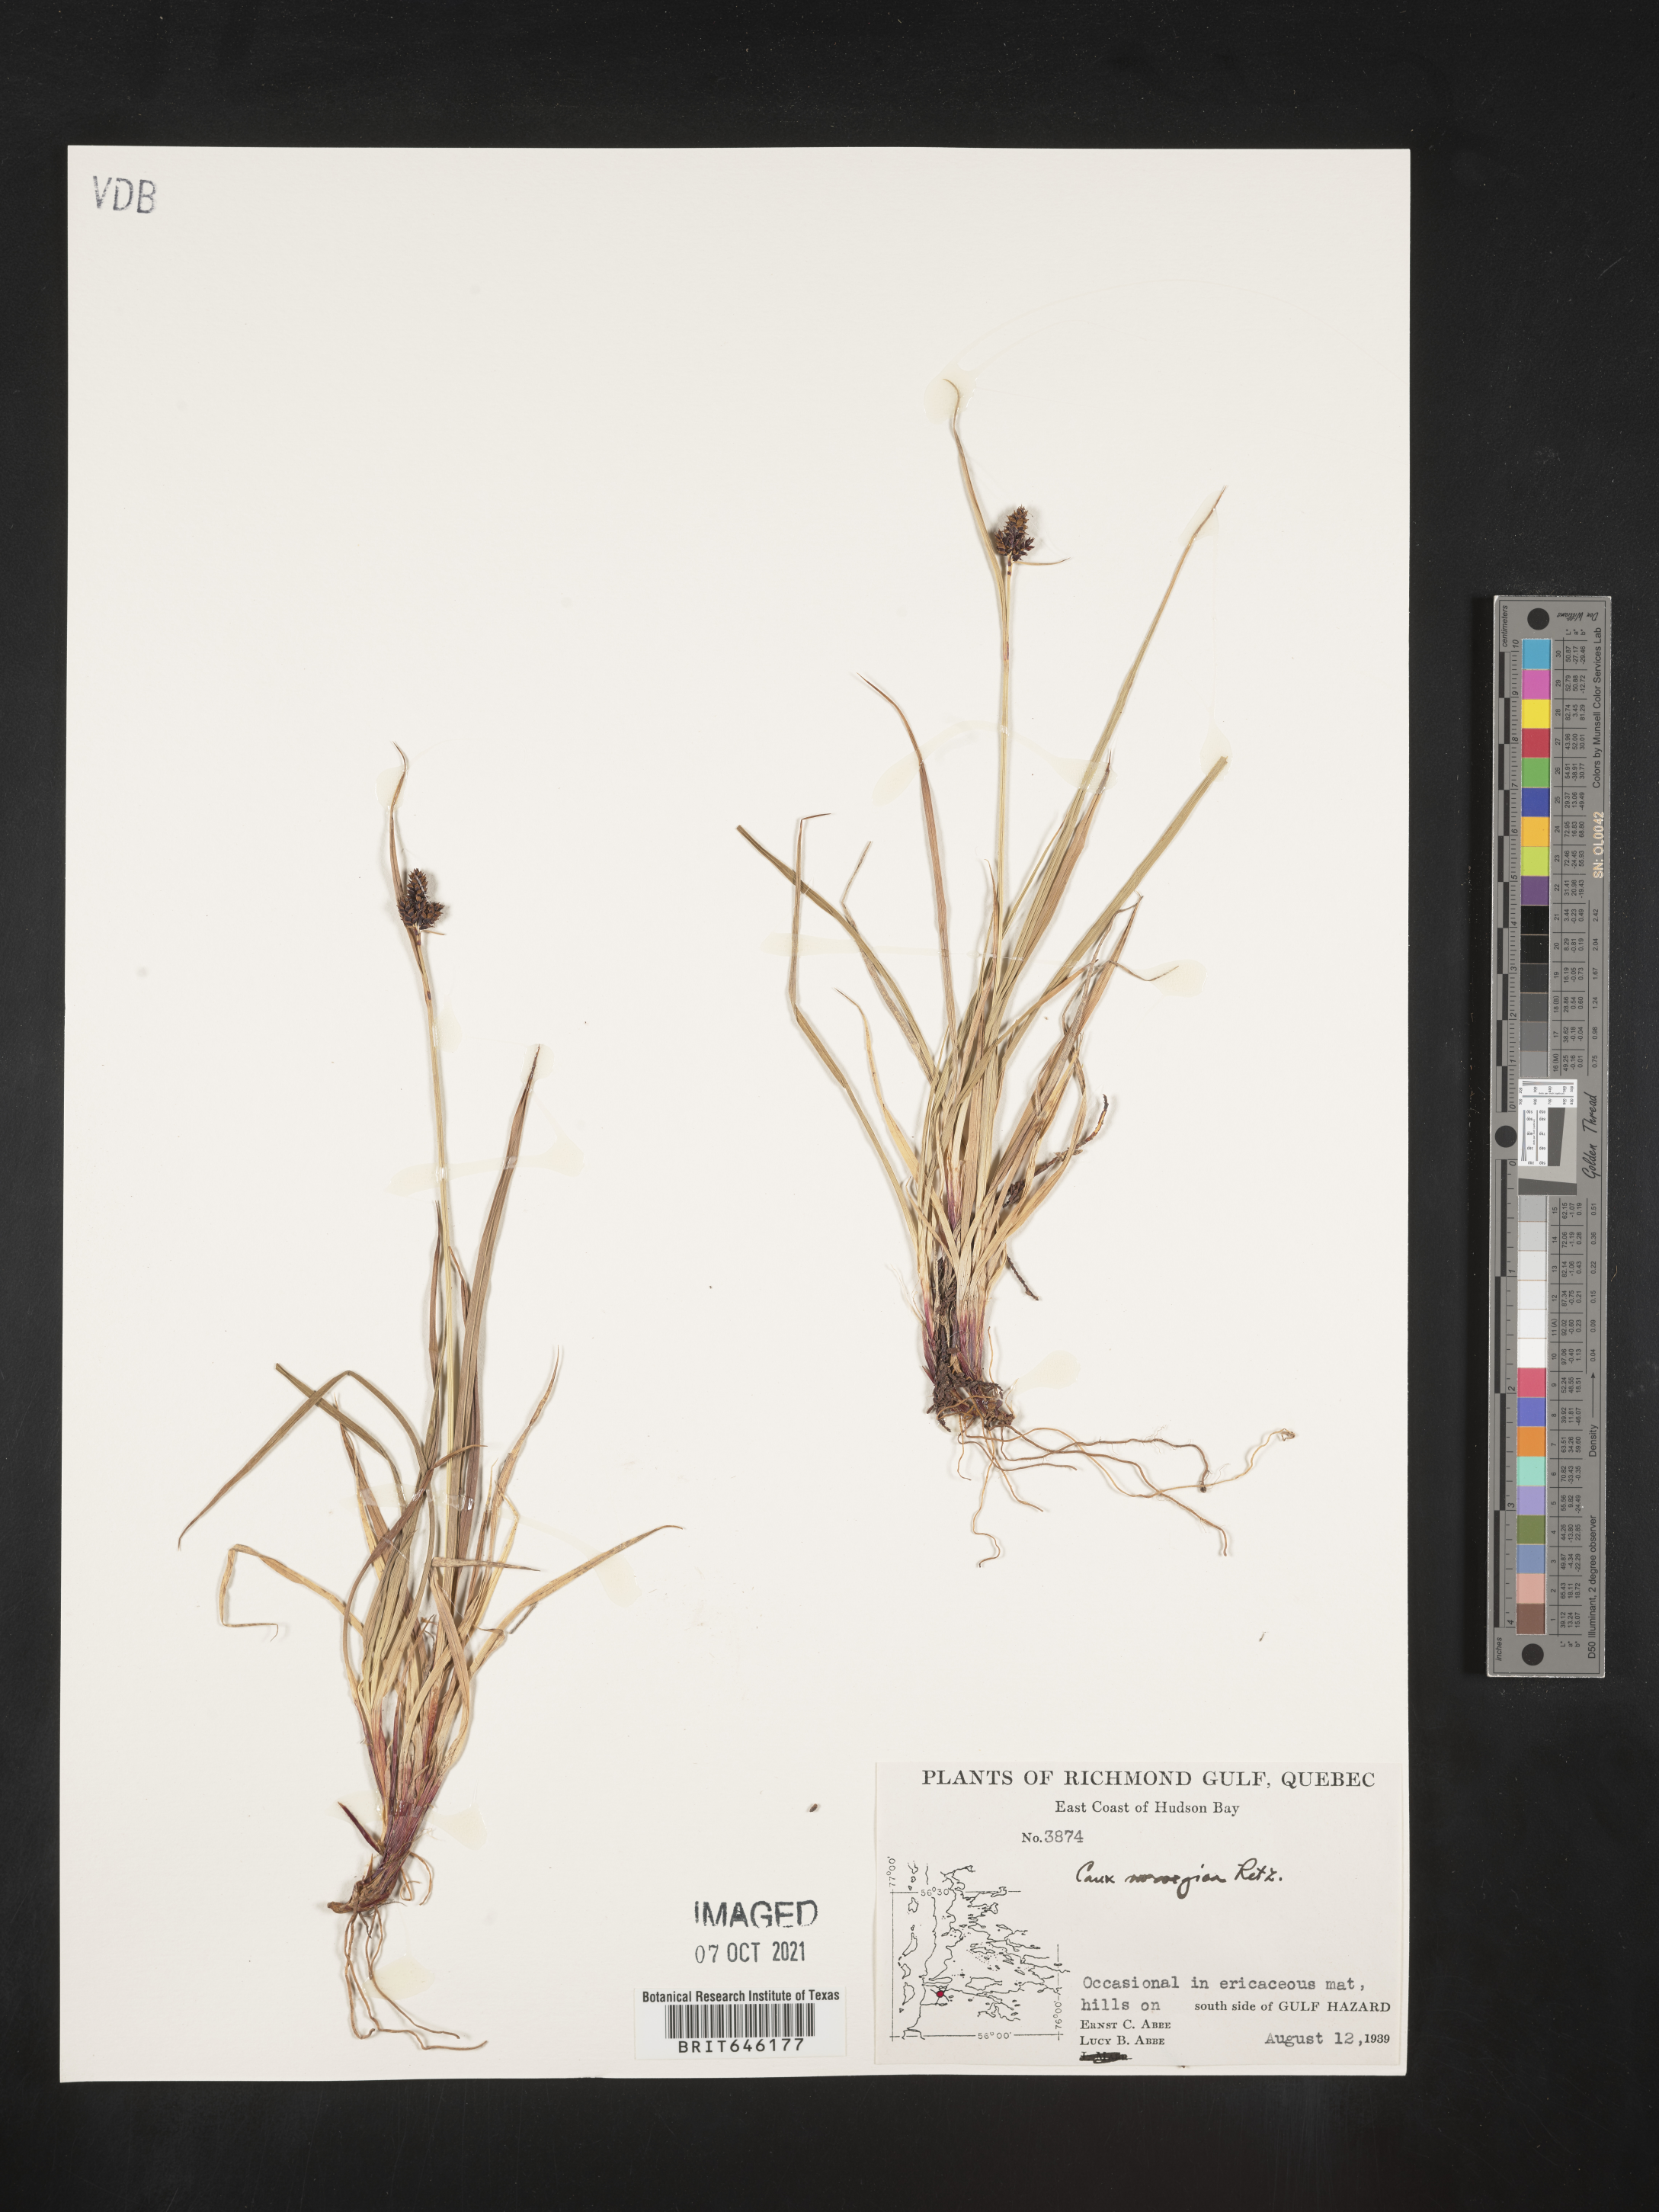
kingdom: Plantae
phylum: Tracheophyta
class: Liliopsida
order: Poales
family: Cyperaceae
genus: Carex
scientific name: Carex
